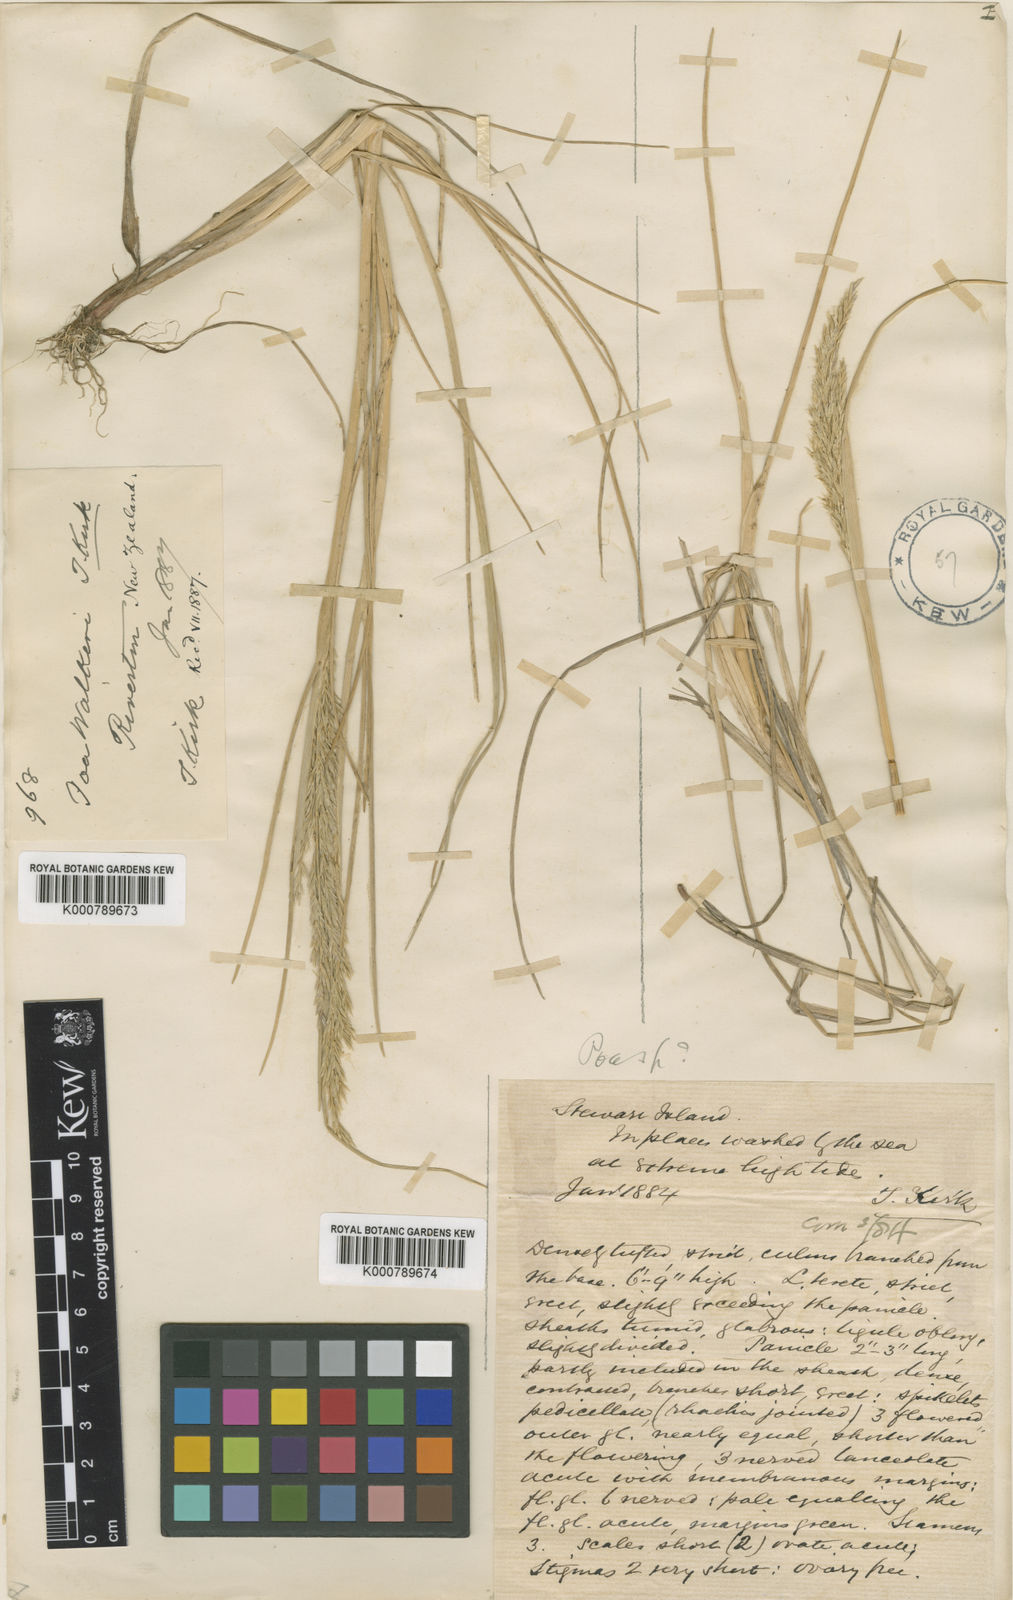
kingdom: Plantae
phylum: Tracheophyta
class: Liliopsida
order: Poales
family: Poaceae
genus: Puccinellia
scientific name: Puccinellia walkeri
